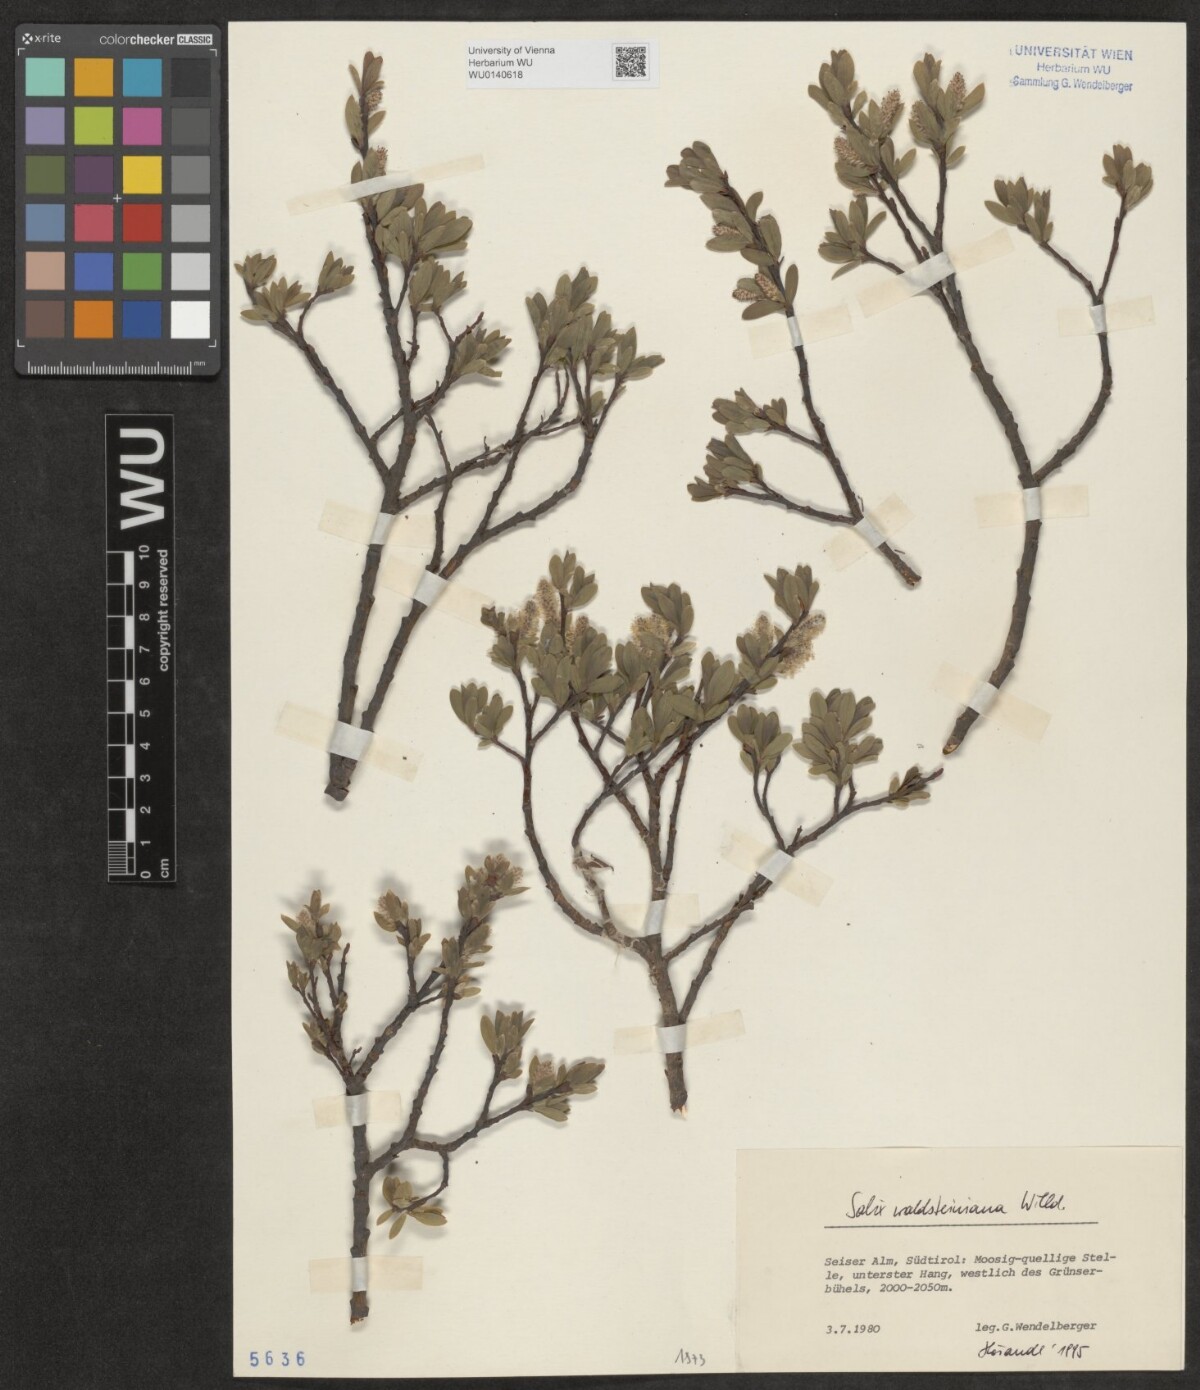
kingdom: Plantae
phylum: Tracheophyta
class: Magnoliopsida
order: Malpighiales
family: Salicaceae
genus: Salix
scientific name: Salix waldsteiniana
